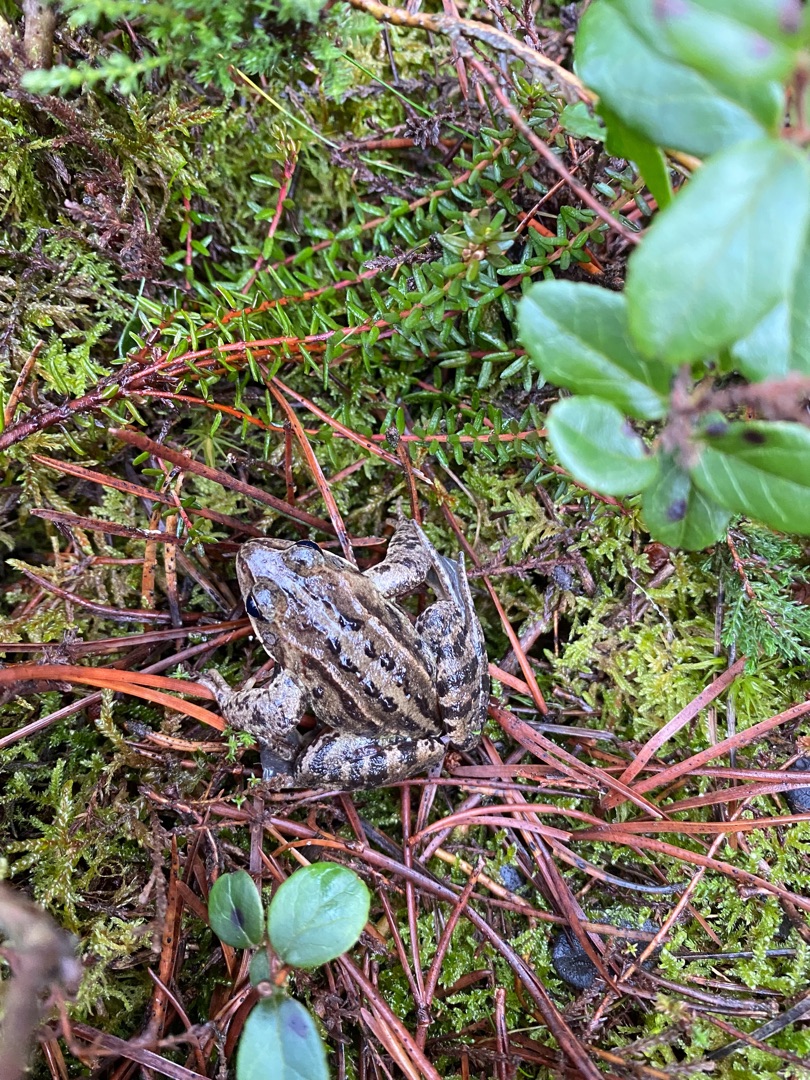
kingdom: Animalia
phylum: Chordata
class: Amphibia
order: Anura
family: Ranidae
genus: Rana
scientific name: Rana arvalis
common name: Spidssnudet frø
